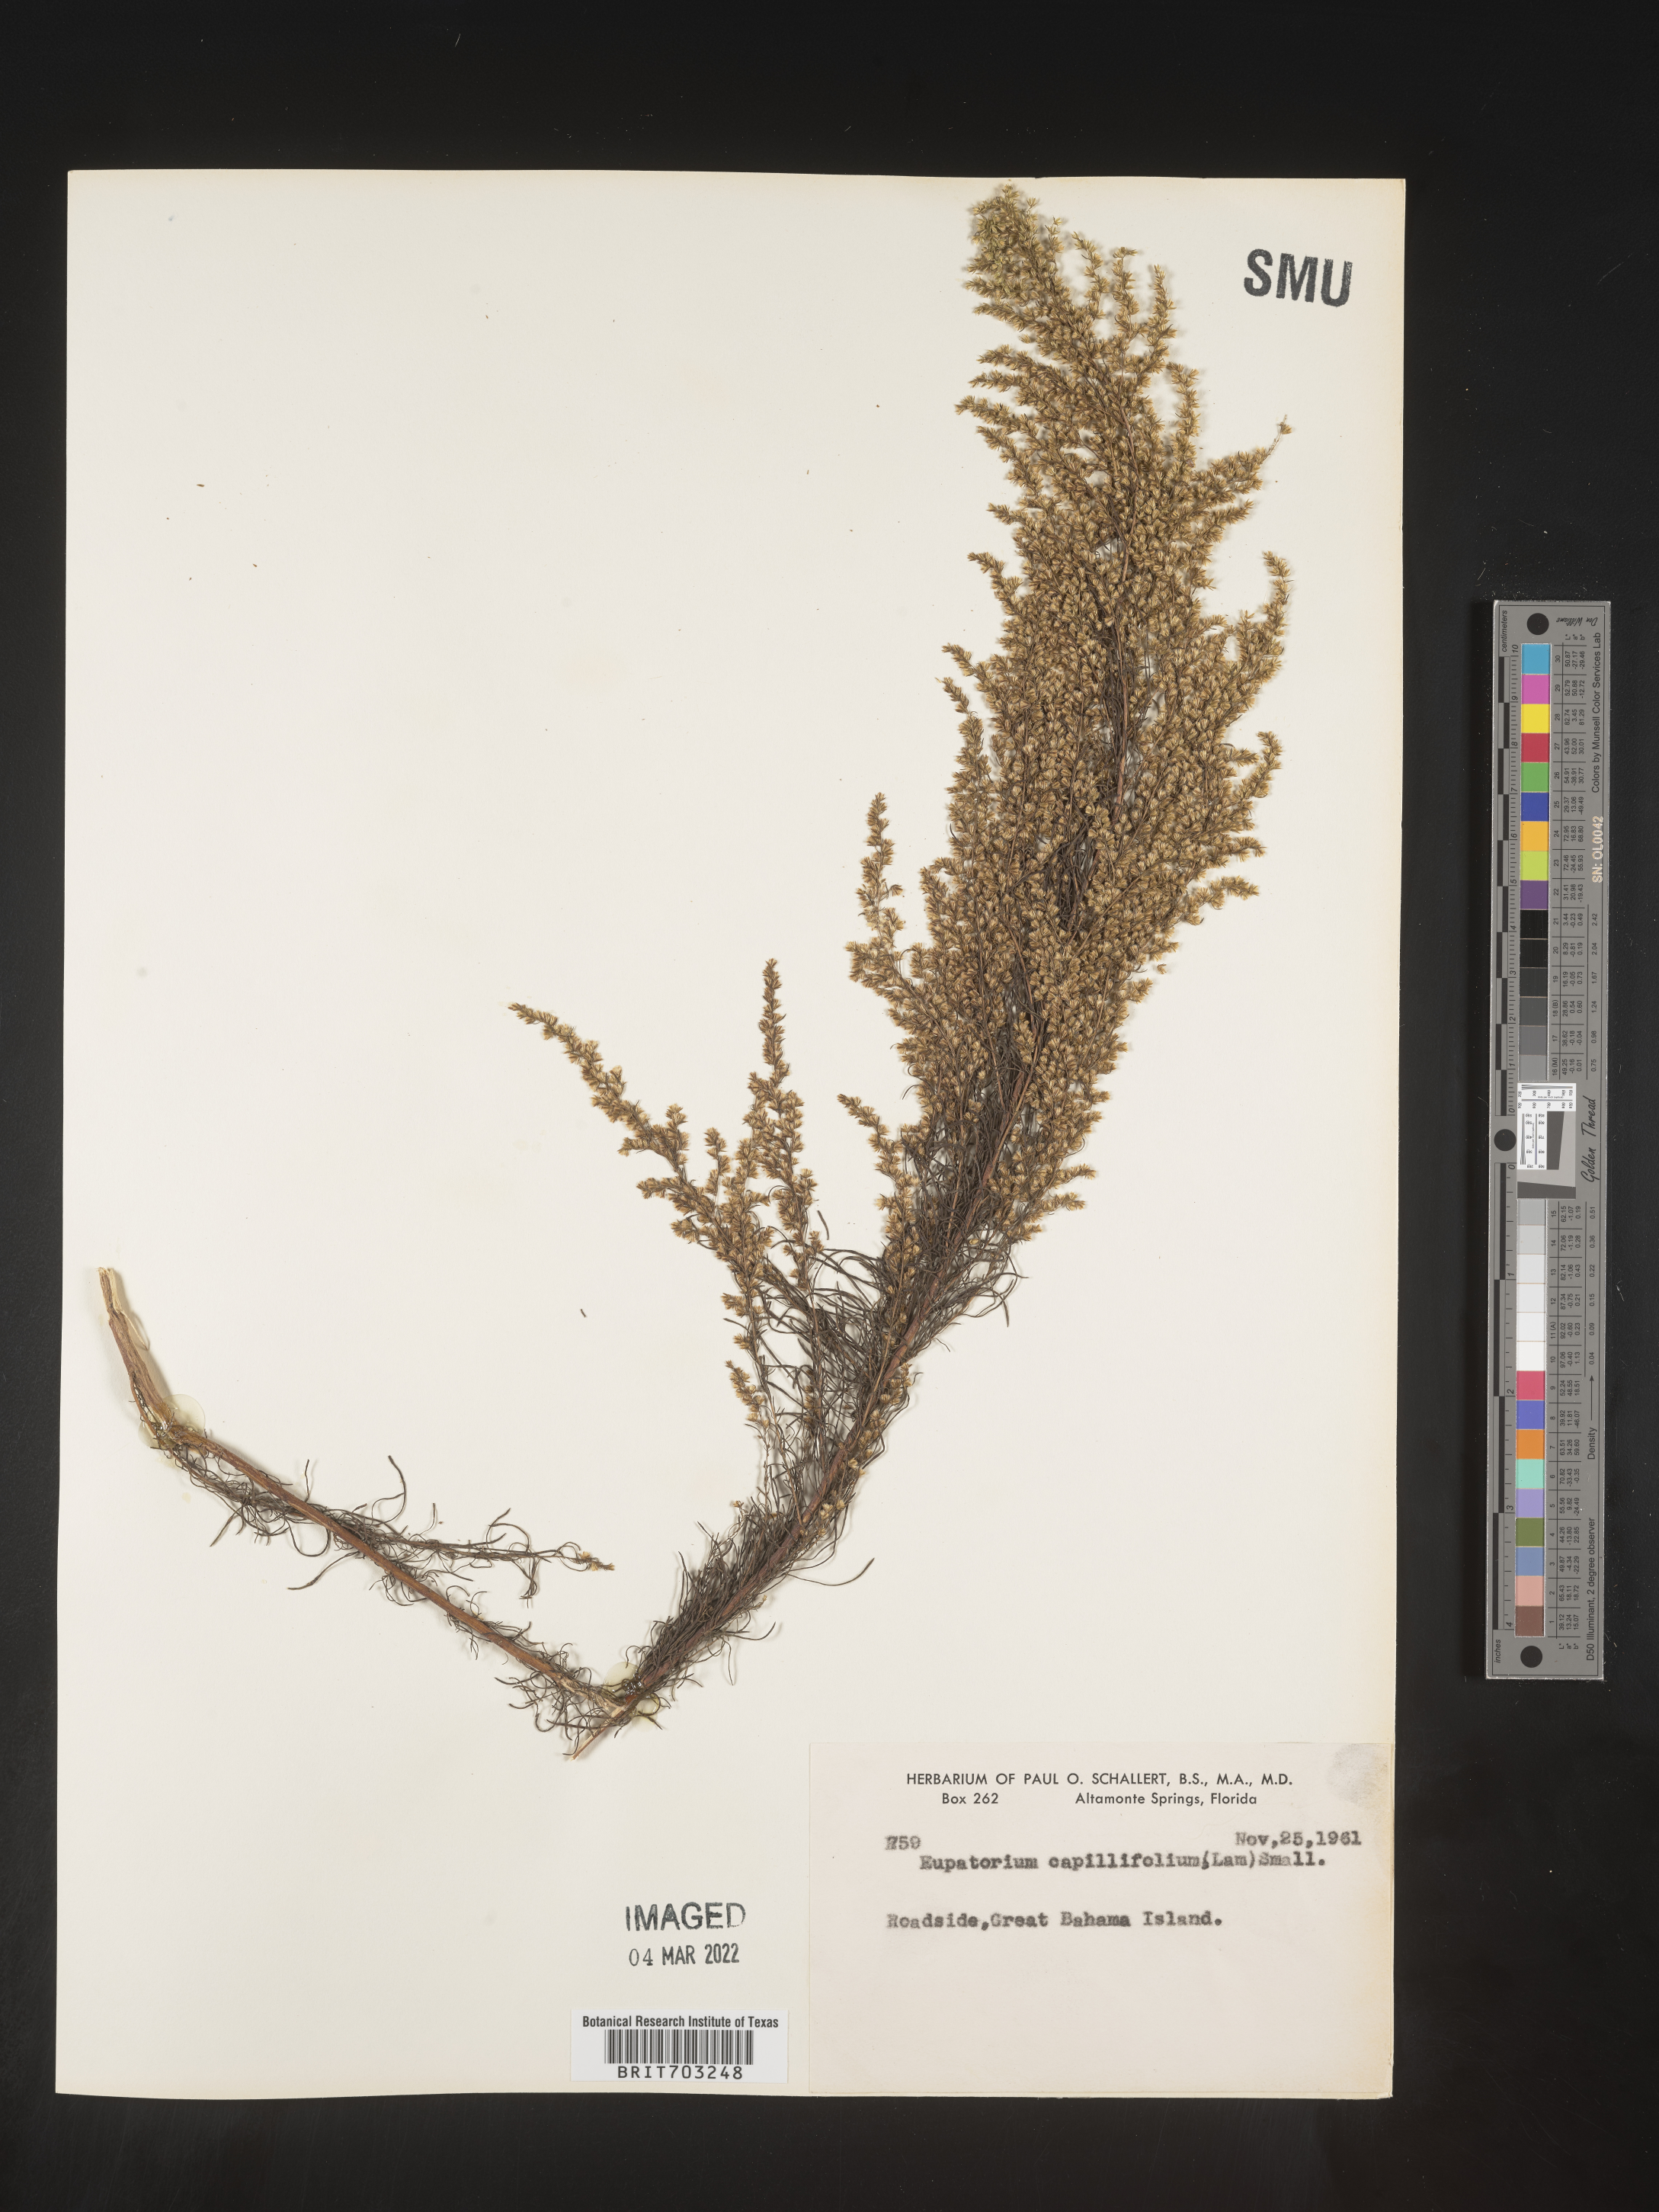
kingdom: Plantae
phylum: Tracheophyta
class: Magnoliopsida
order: Asterales
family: Asteraceae
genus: Eupatorium
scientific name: Eupatorium
